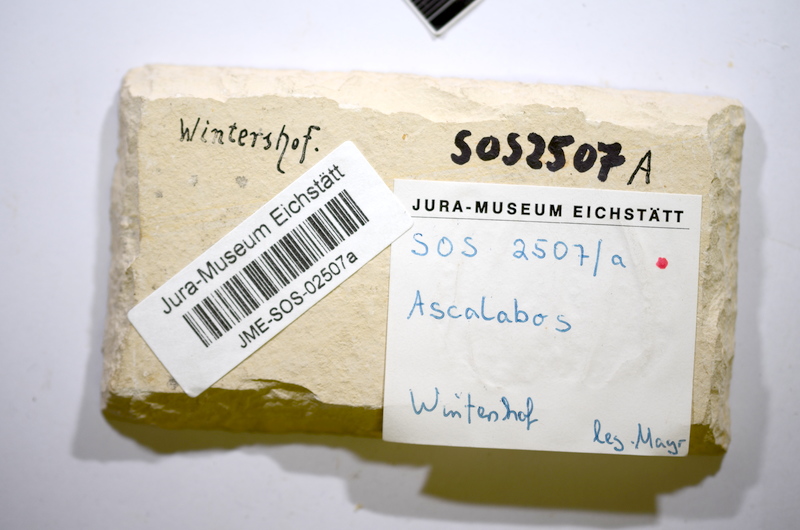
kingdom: Animalia
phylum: Chordata
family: Ascalaboidae
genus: Ascalabos
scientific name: Ascalabos voithii
